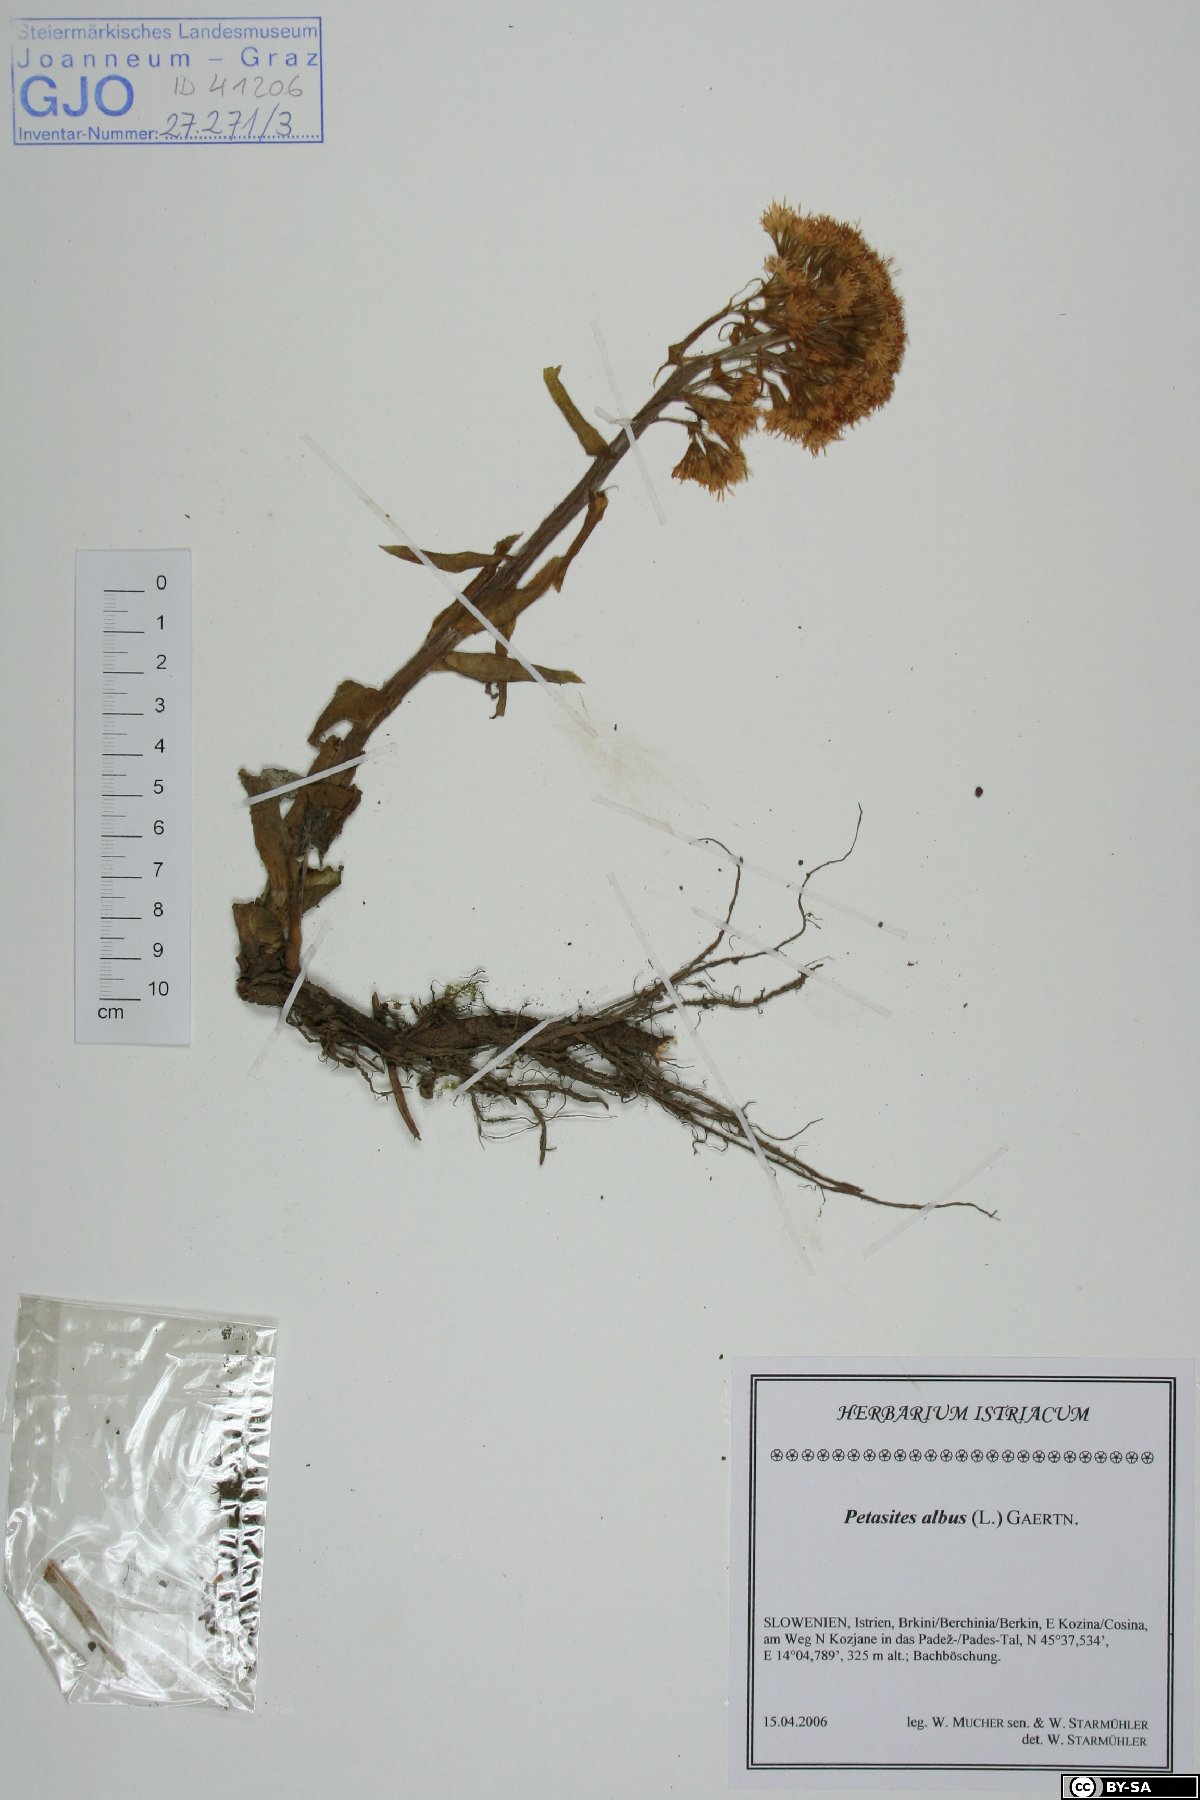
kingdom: Plantae
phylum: Tracheophyta
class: Magnoliopsida
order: Asterales
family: Asteraceae
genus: Petasites
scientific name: Petasites albus
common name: White butterbur
